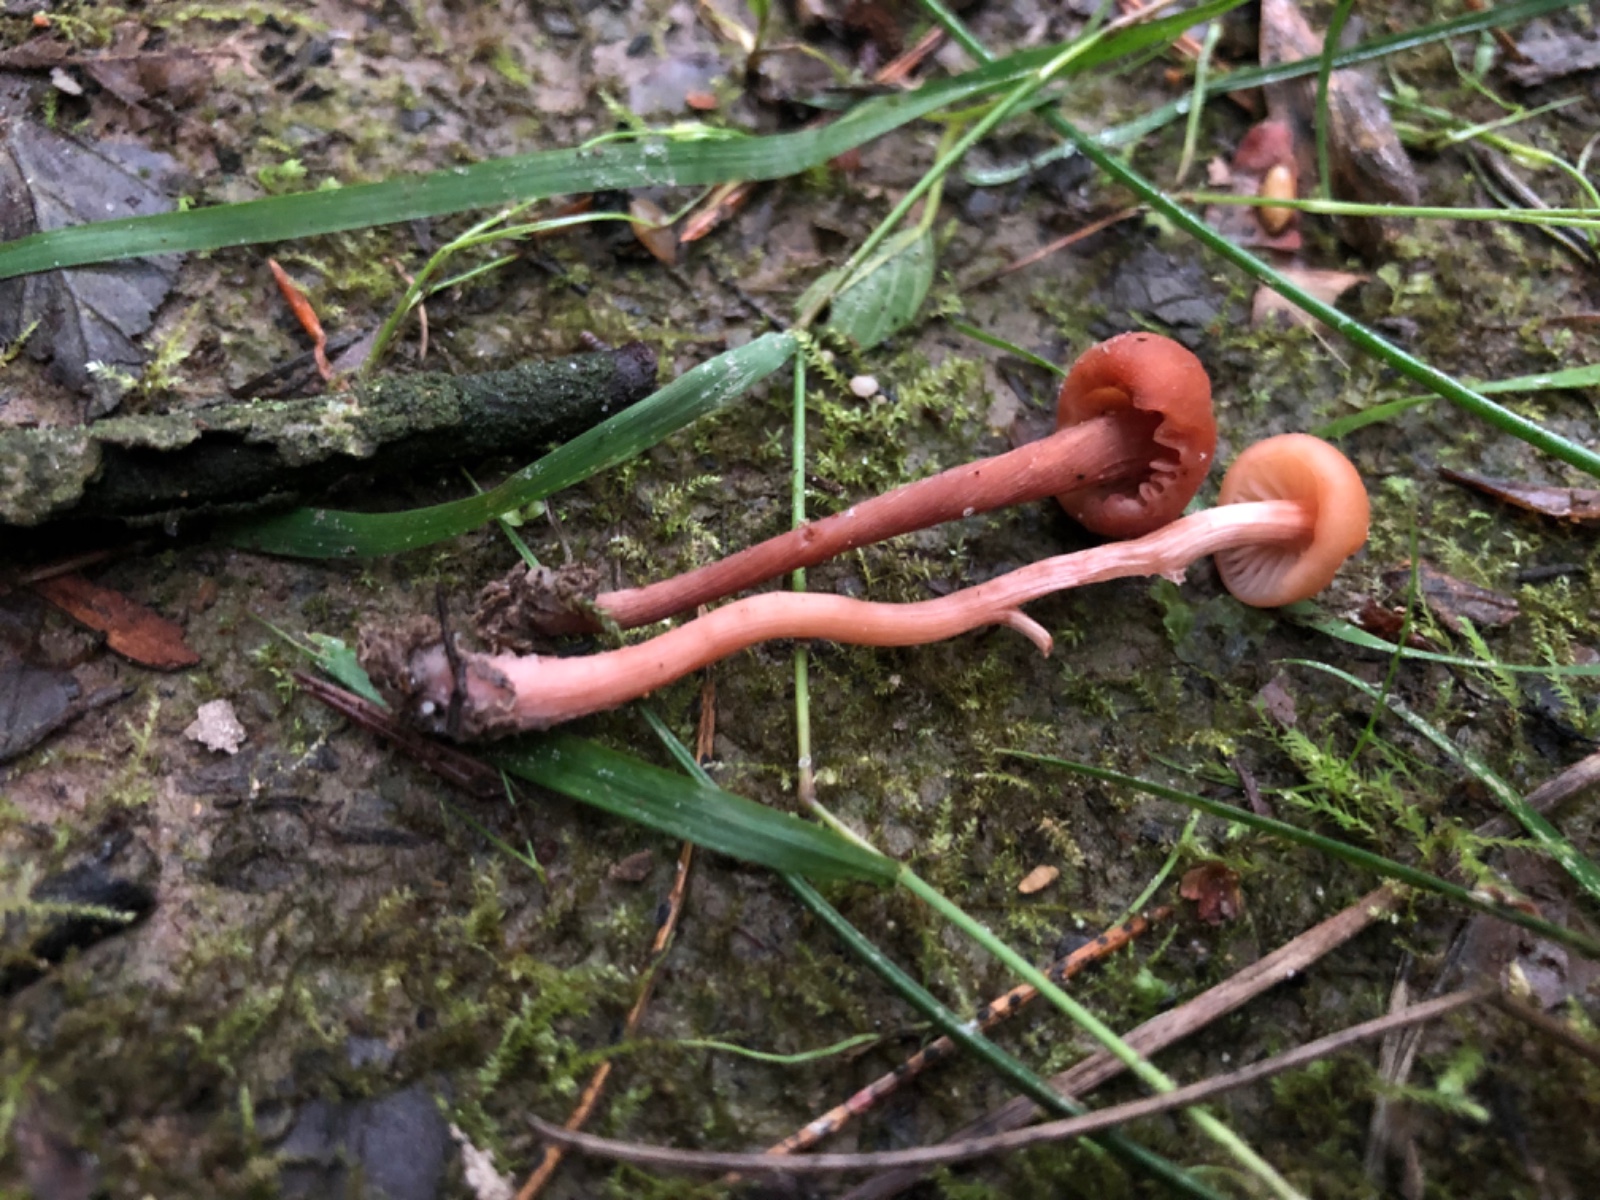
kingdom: Fungi
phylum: Basidiomycota
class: Agaricomycetes
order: Agaricales
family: Hydnangiaceae
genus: Laccaria
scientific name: Laccaria laccata
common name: rød ametysthat
